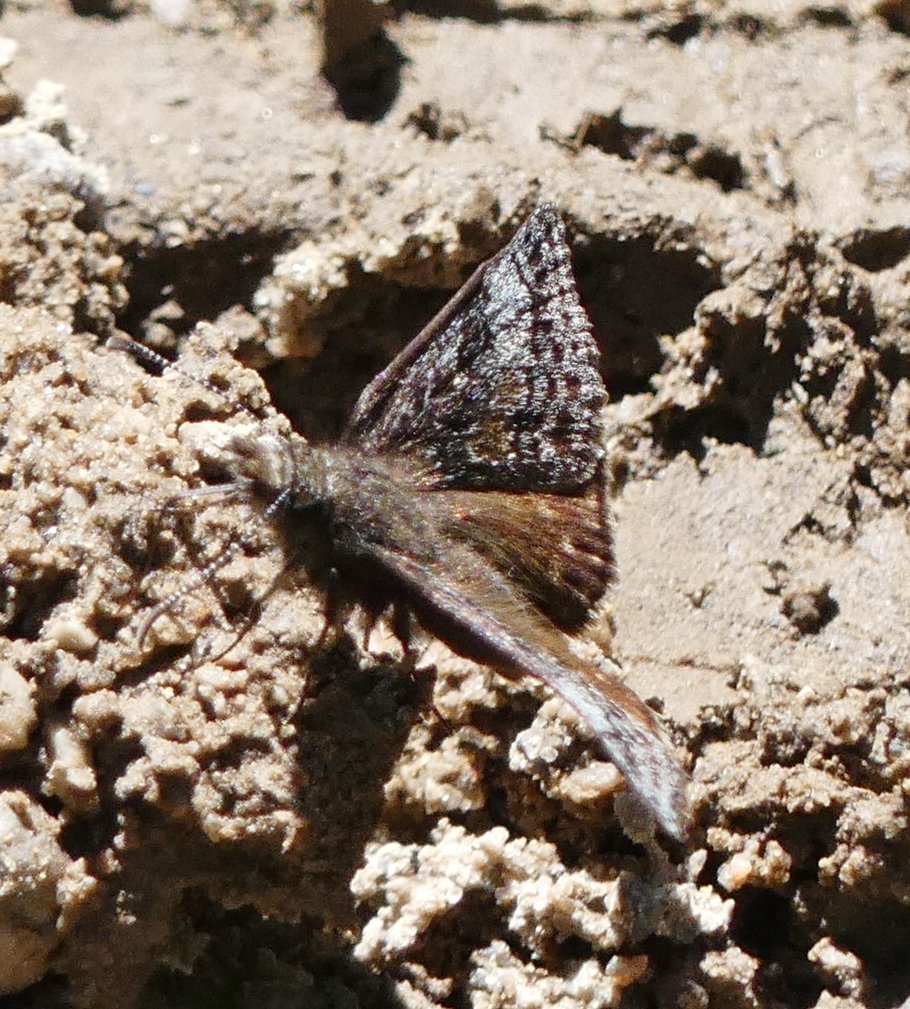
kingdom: Animalia
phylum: Arthropoda
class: Insecta
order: Lepidoptera
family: Hesperiidae
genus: Erynnis
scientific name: Erynnis icelus
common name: Dreamy Duskywing
